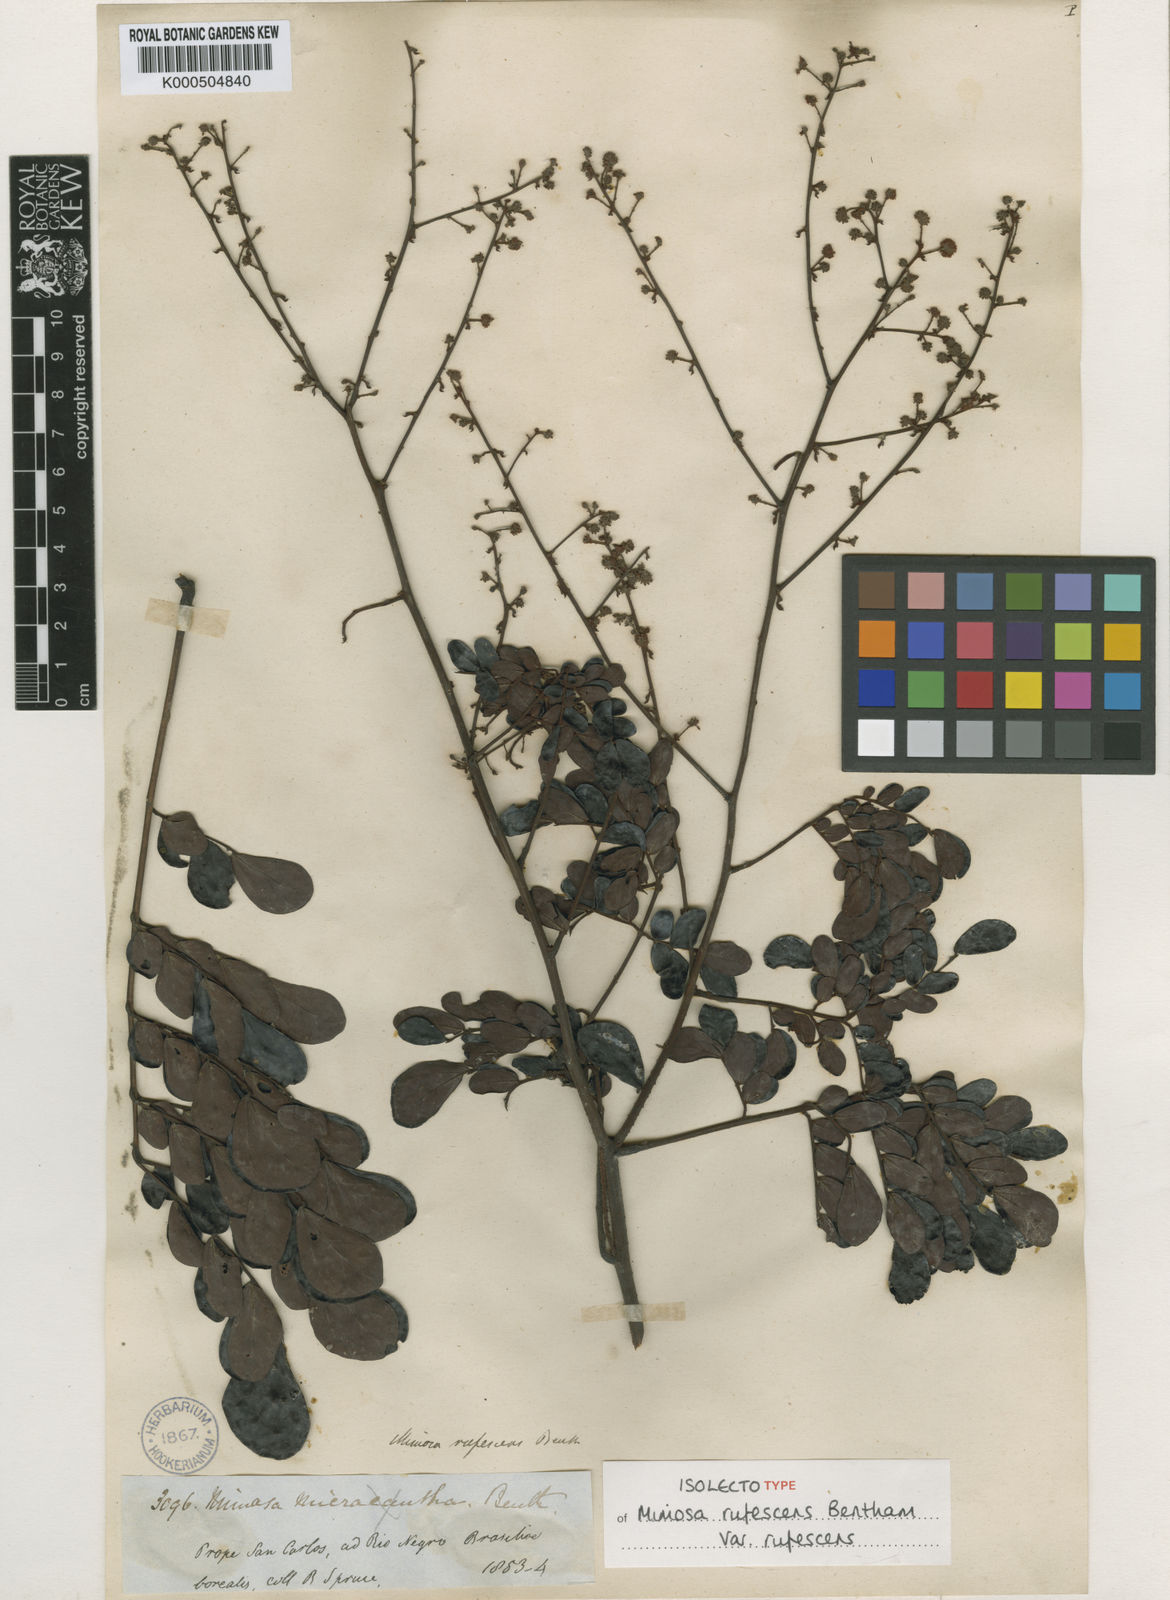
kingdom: Plantae
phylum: Tracheophyta
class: Magnoliopsida
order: Fabales
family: Fabaceae
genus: Mimosa
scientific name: Mimosa rufescens
